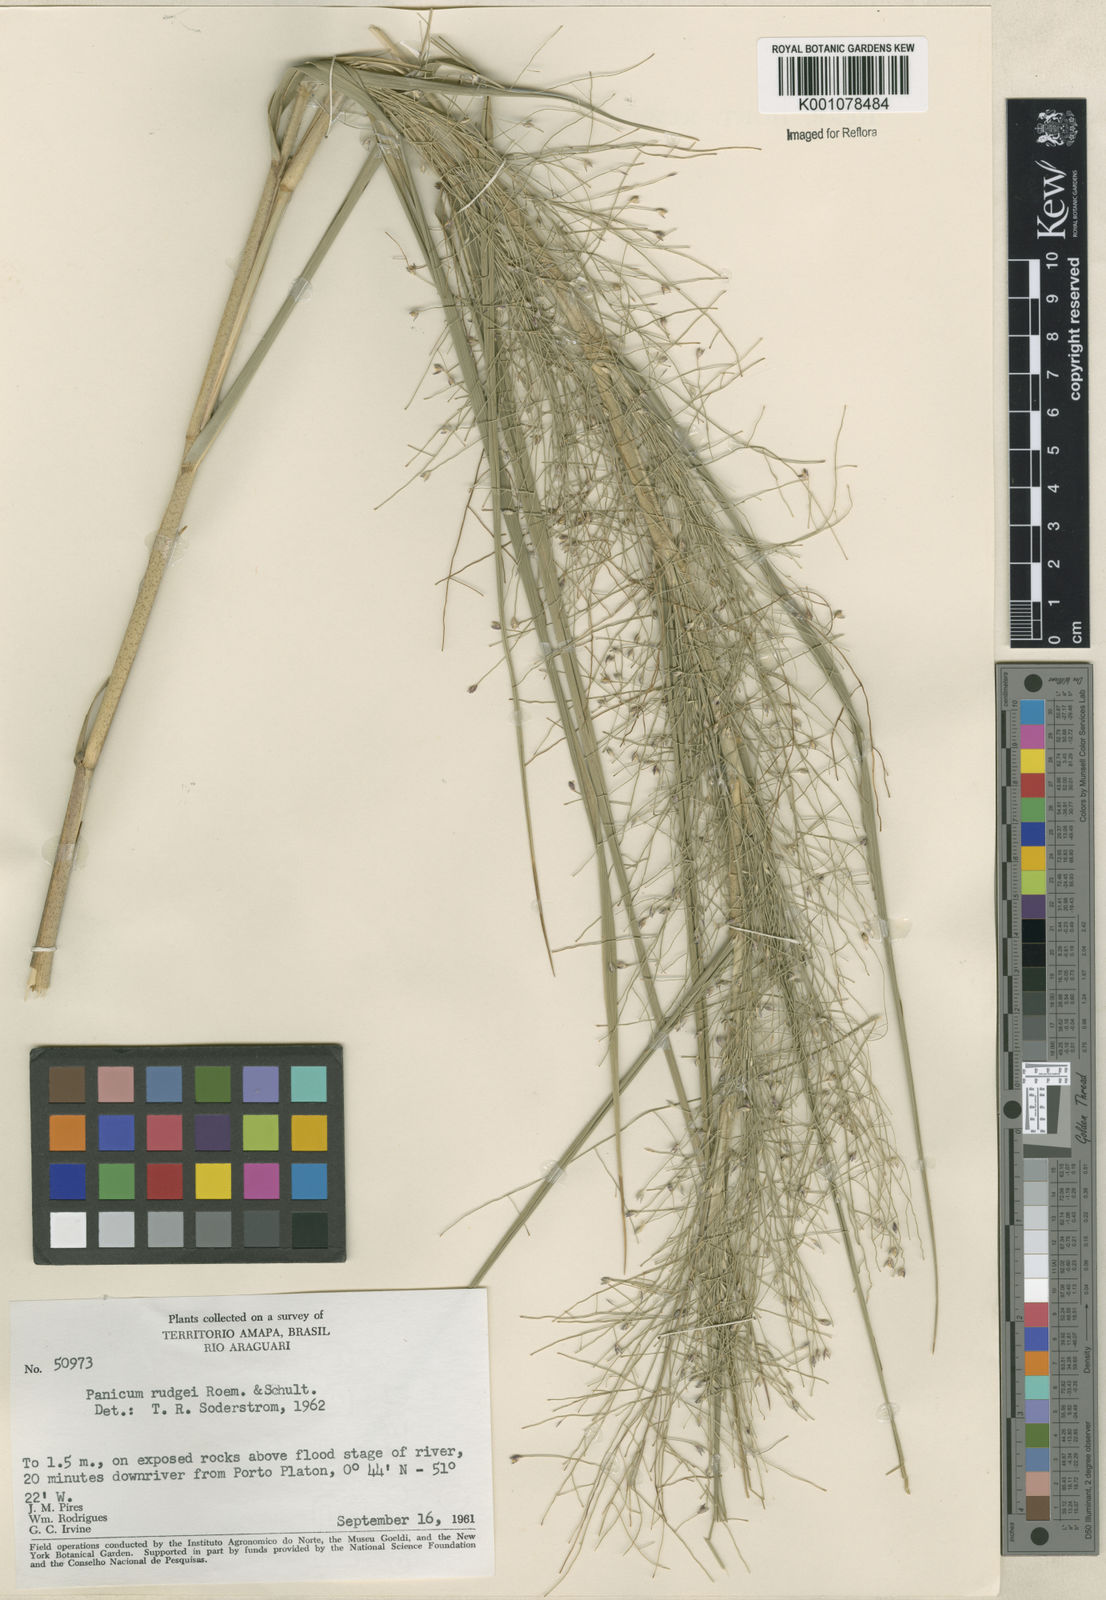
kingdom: Plantae
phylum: Tracheophyta
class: Liliopsida
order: Poales
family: Poaceae
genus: Panicum
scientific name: Panicum rudgei
